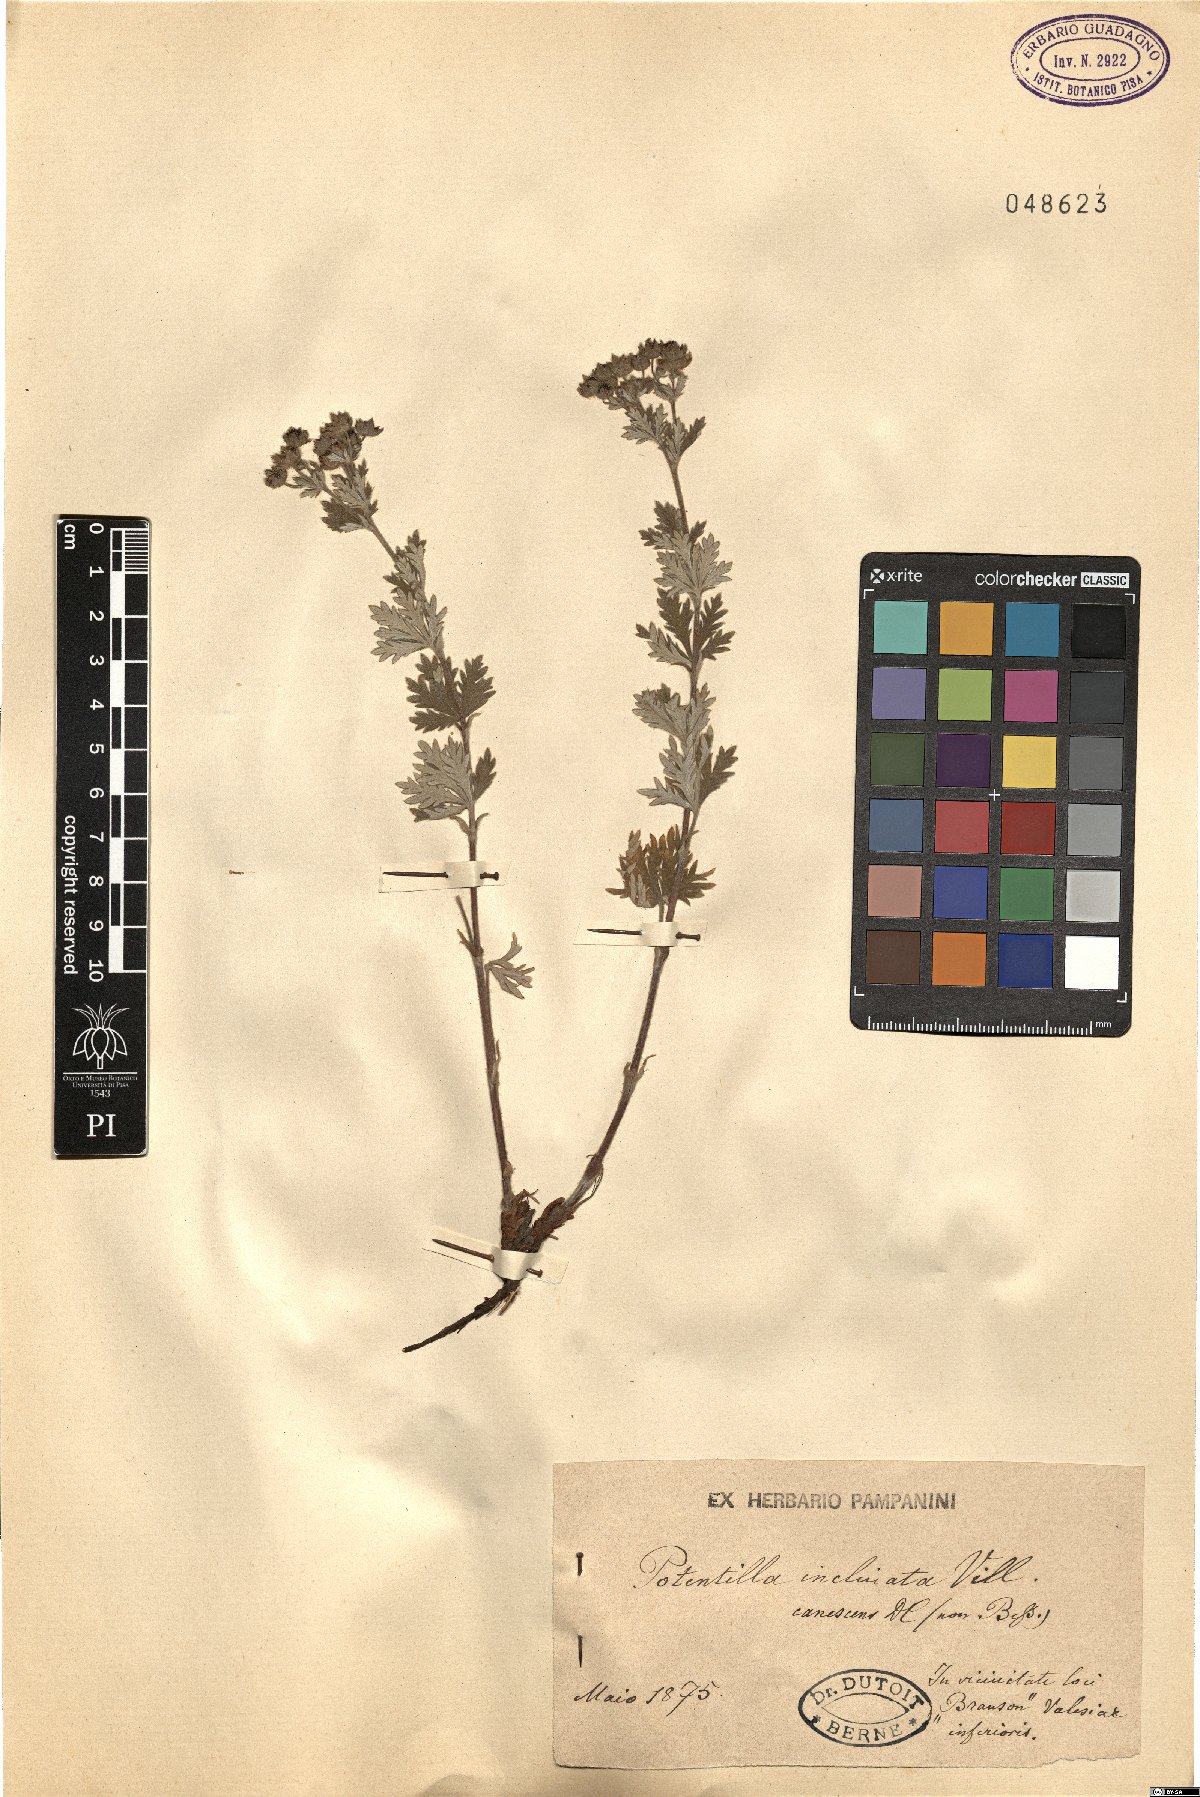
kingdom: Plantae
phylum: Tracheophyta
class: Magnoliopsida
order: Rosales
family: Rosaceae
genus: Potentilla
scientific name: Potentilla inclinata
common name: Grey cinquefoil
